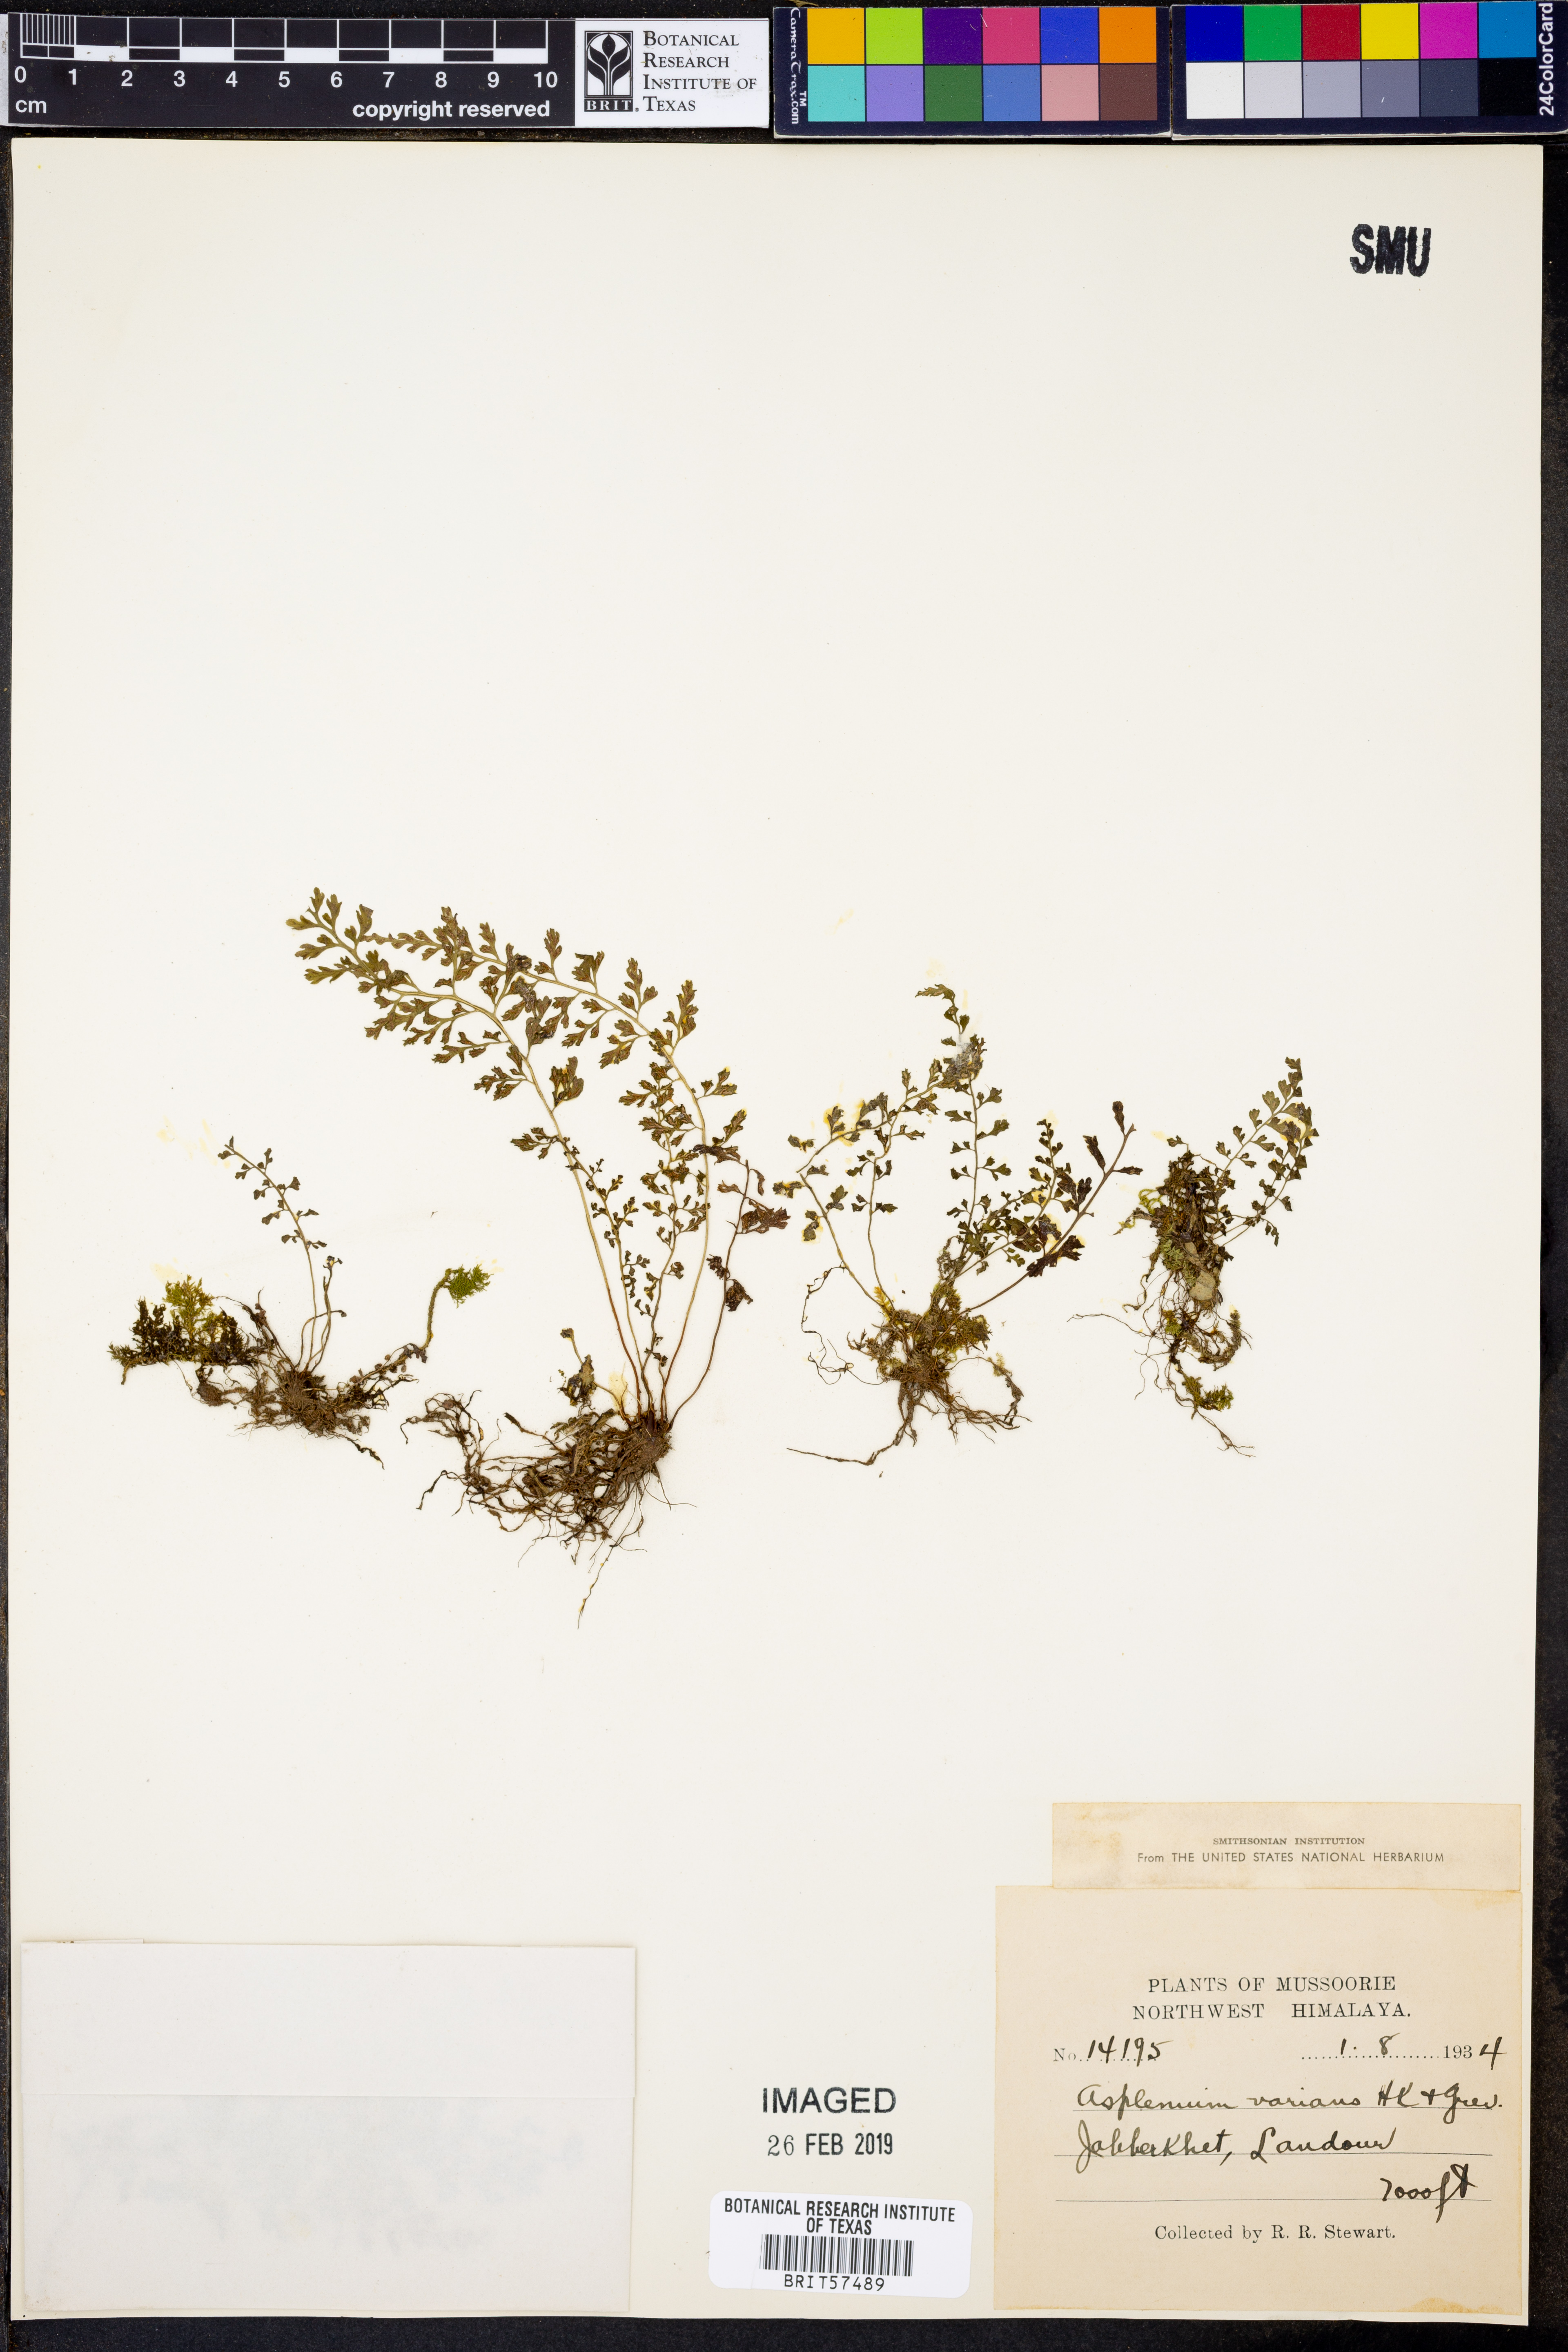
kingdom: Plantae
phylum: Tracheophyta
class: Polypodiopsida
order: Polypodiales
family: Aspleniaceae
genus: Asplenium
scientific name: Asplenium laciniatum
